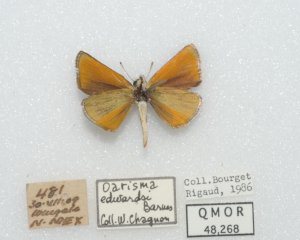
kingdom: Animalia
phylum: Arthropoda
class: Insecta
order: Lepidoptera
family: Hesperiidae
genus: Oarisma
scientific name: Oarisma edwardsii
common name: Edwards' Skipperling
